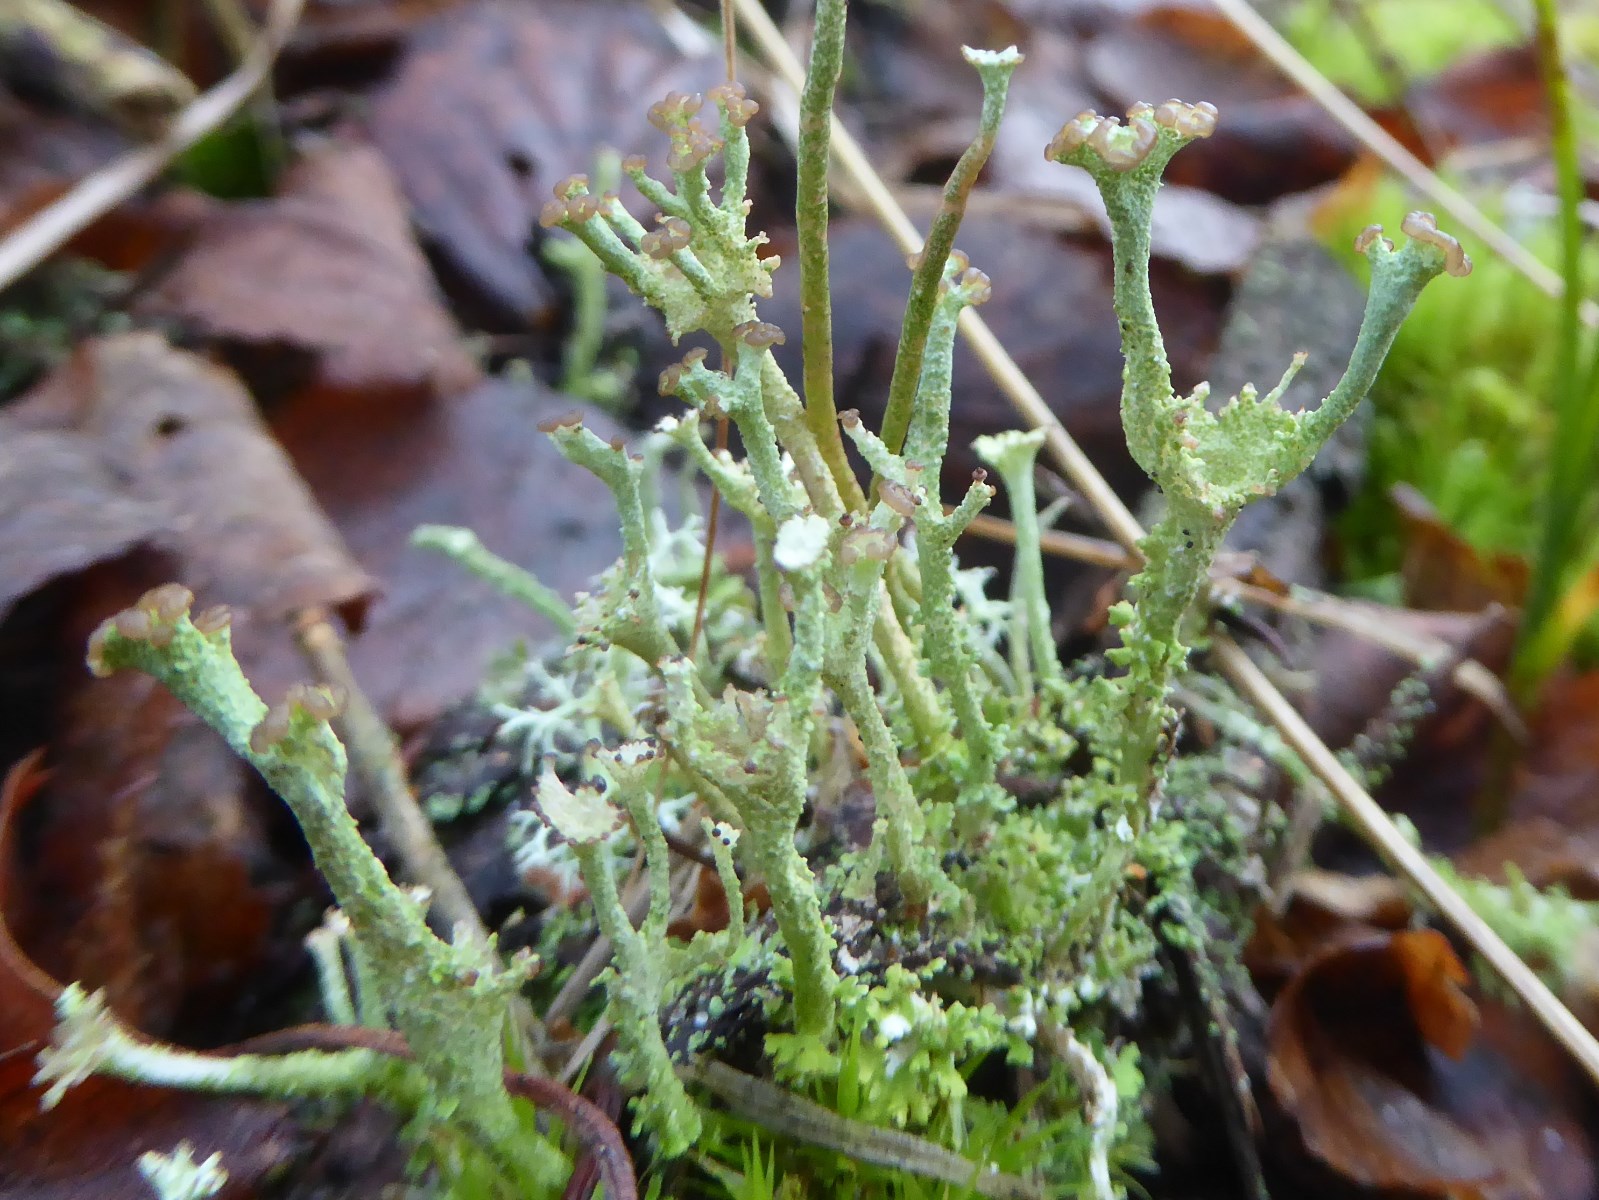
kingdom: Fungi
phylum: Ascomycota
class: Lecanoromycetes
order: Lecanorales
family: Cladoniaceae
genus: Cladonia
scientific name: Cladonia ramulosa
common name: kliddet bægerlav
